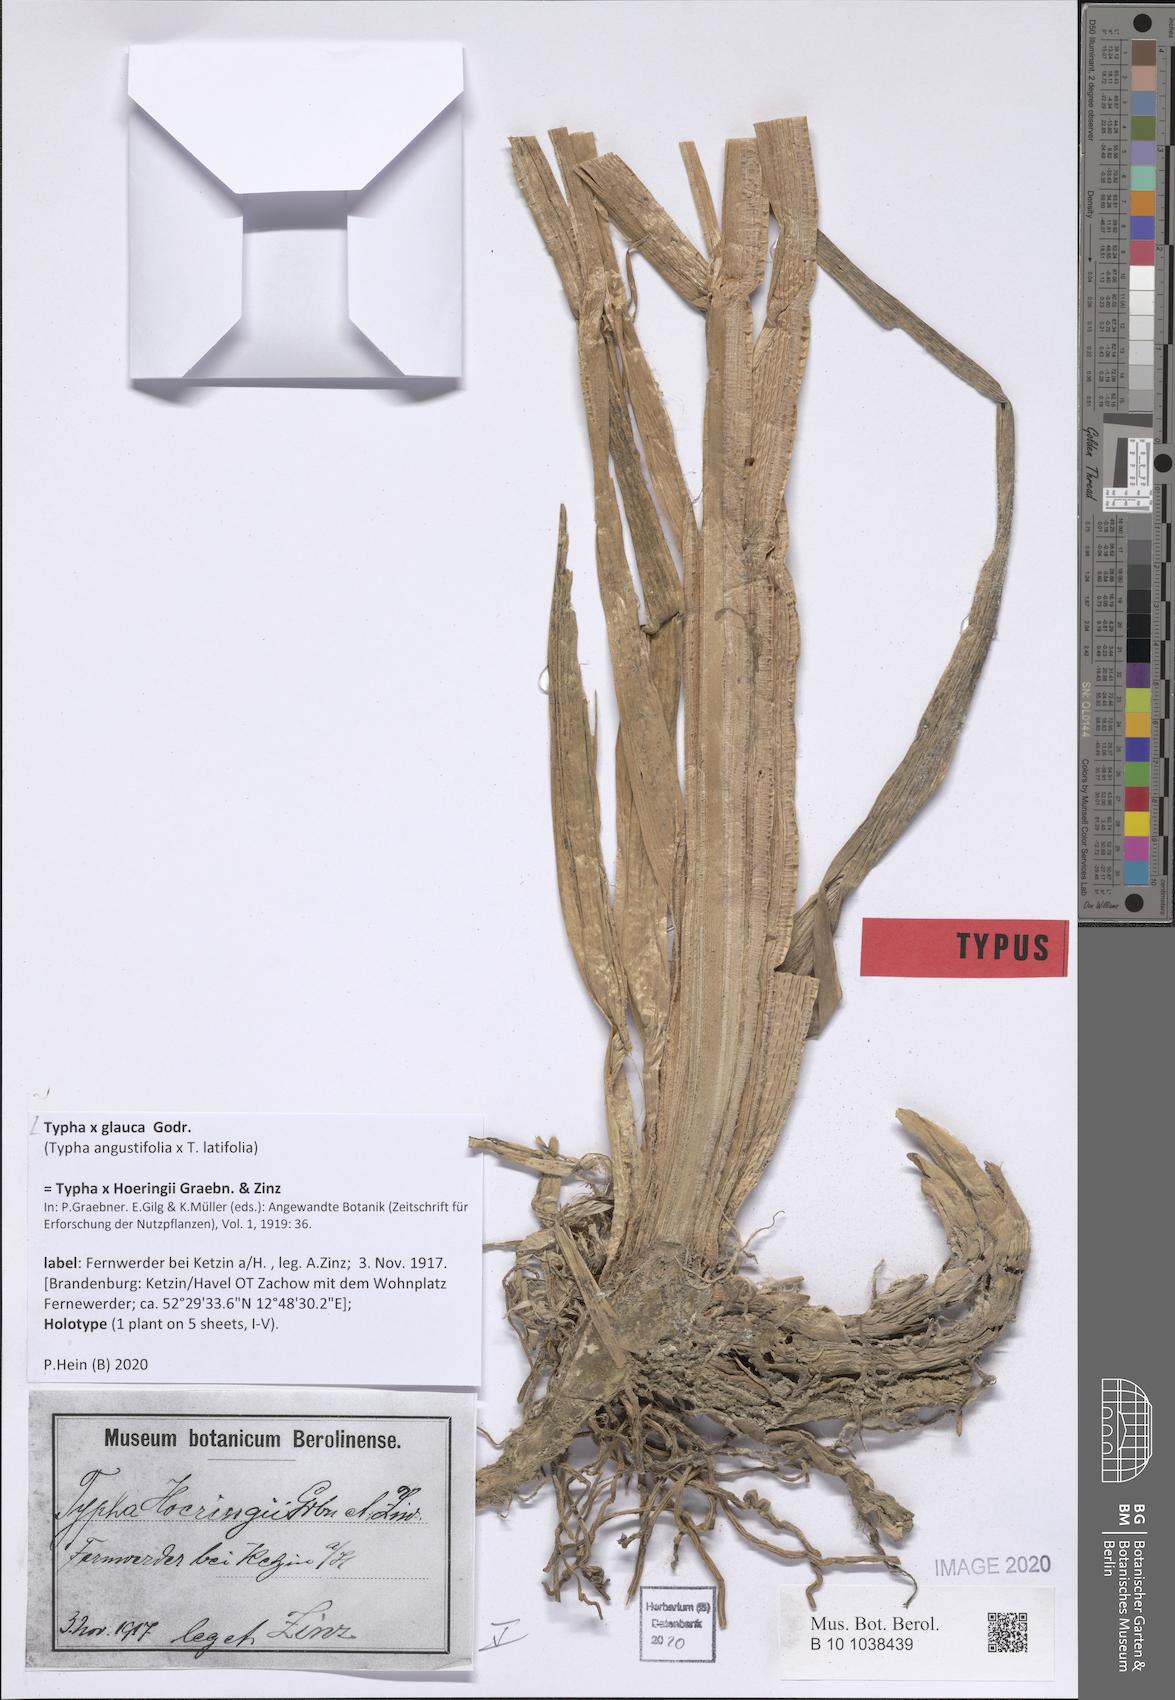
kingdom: Plantae
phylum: Tracheophyta
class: Liliopsida
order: Poales
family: Typhaceae
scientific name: Typhaceae
